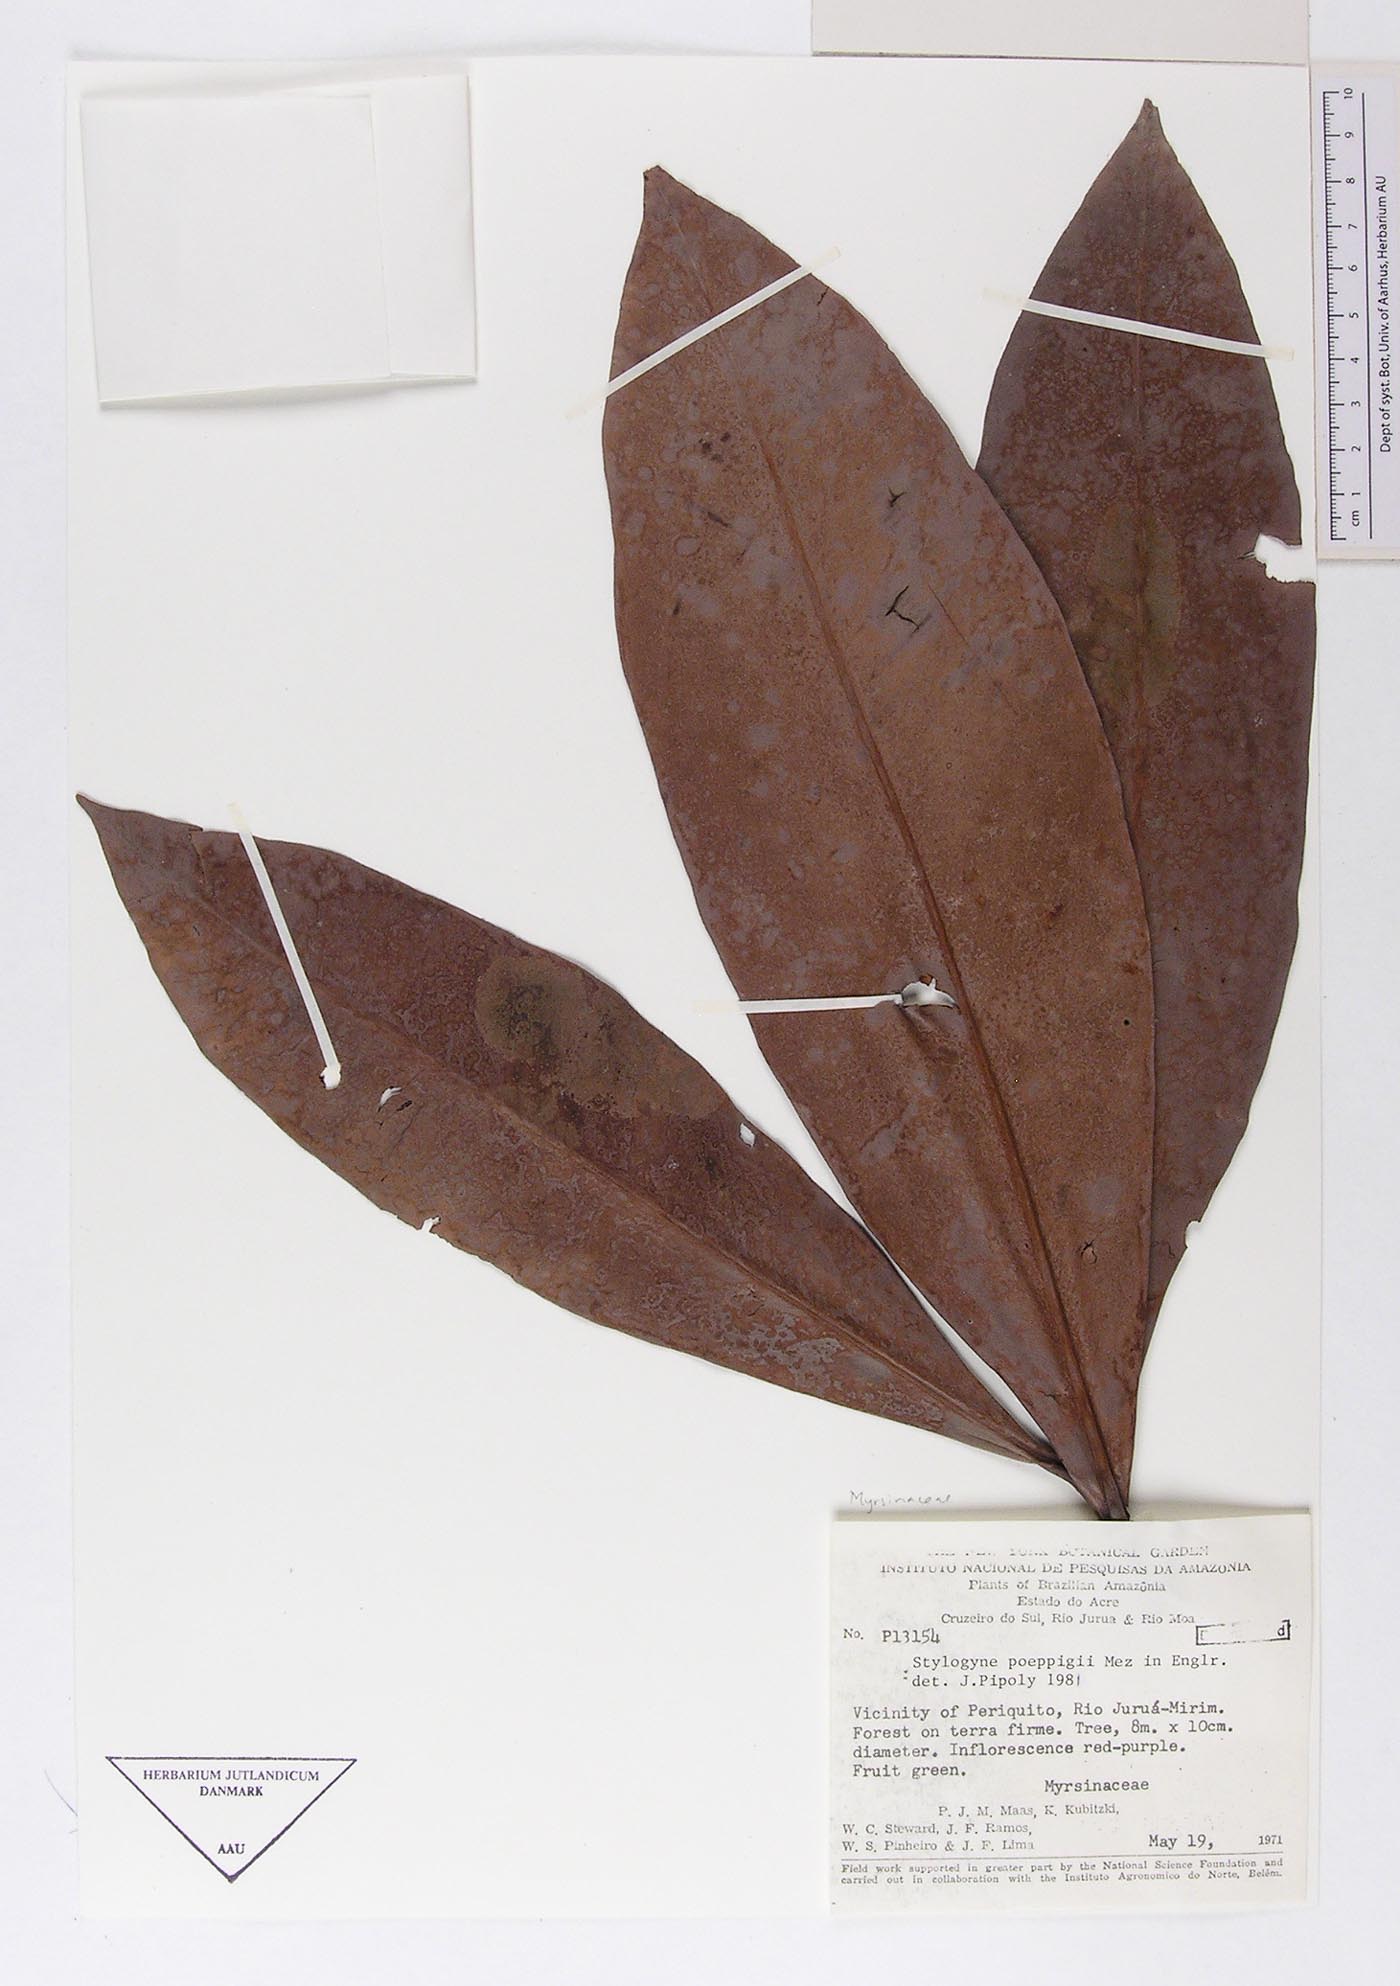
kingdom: Plantae
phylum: Tracheophyta
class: Magnoliopsida
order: Ericales
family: Primulaceae
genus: Stylogyne
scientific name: Stylogyne orinocensis
